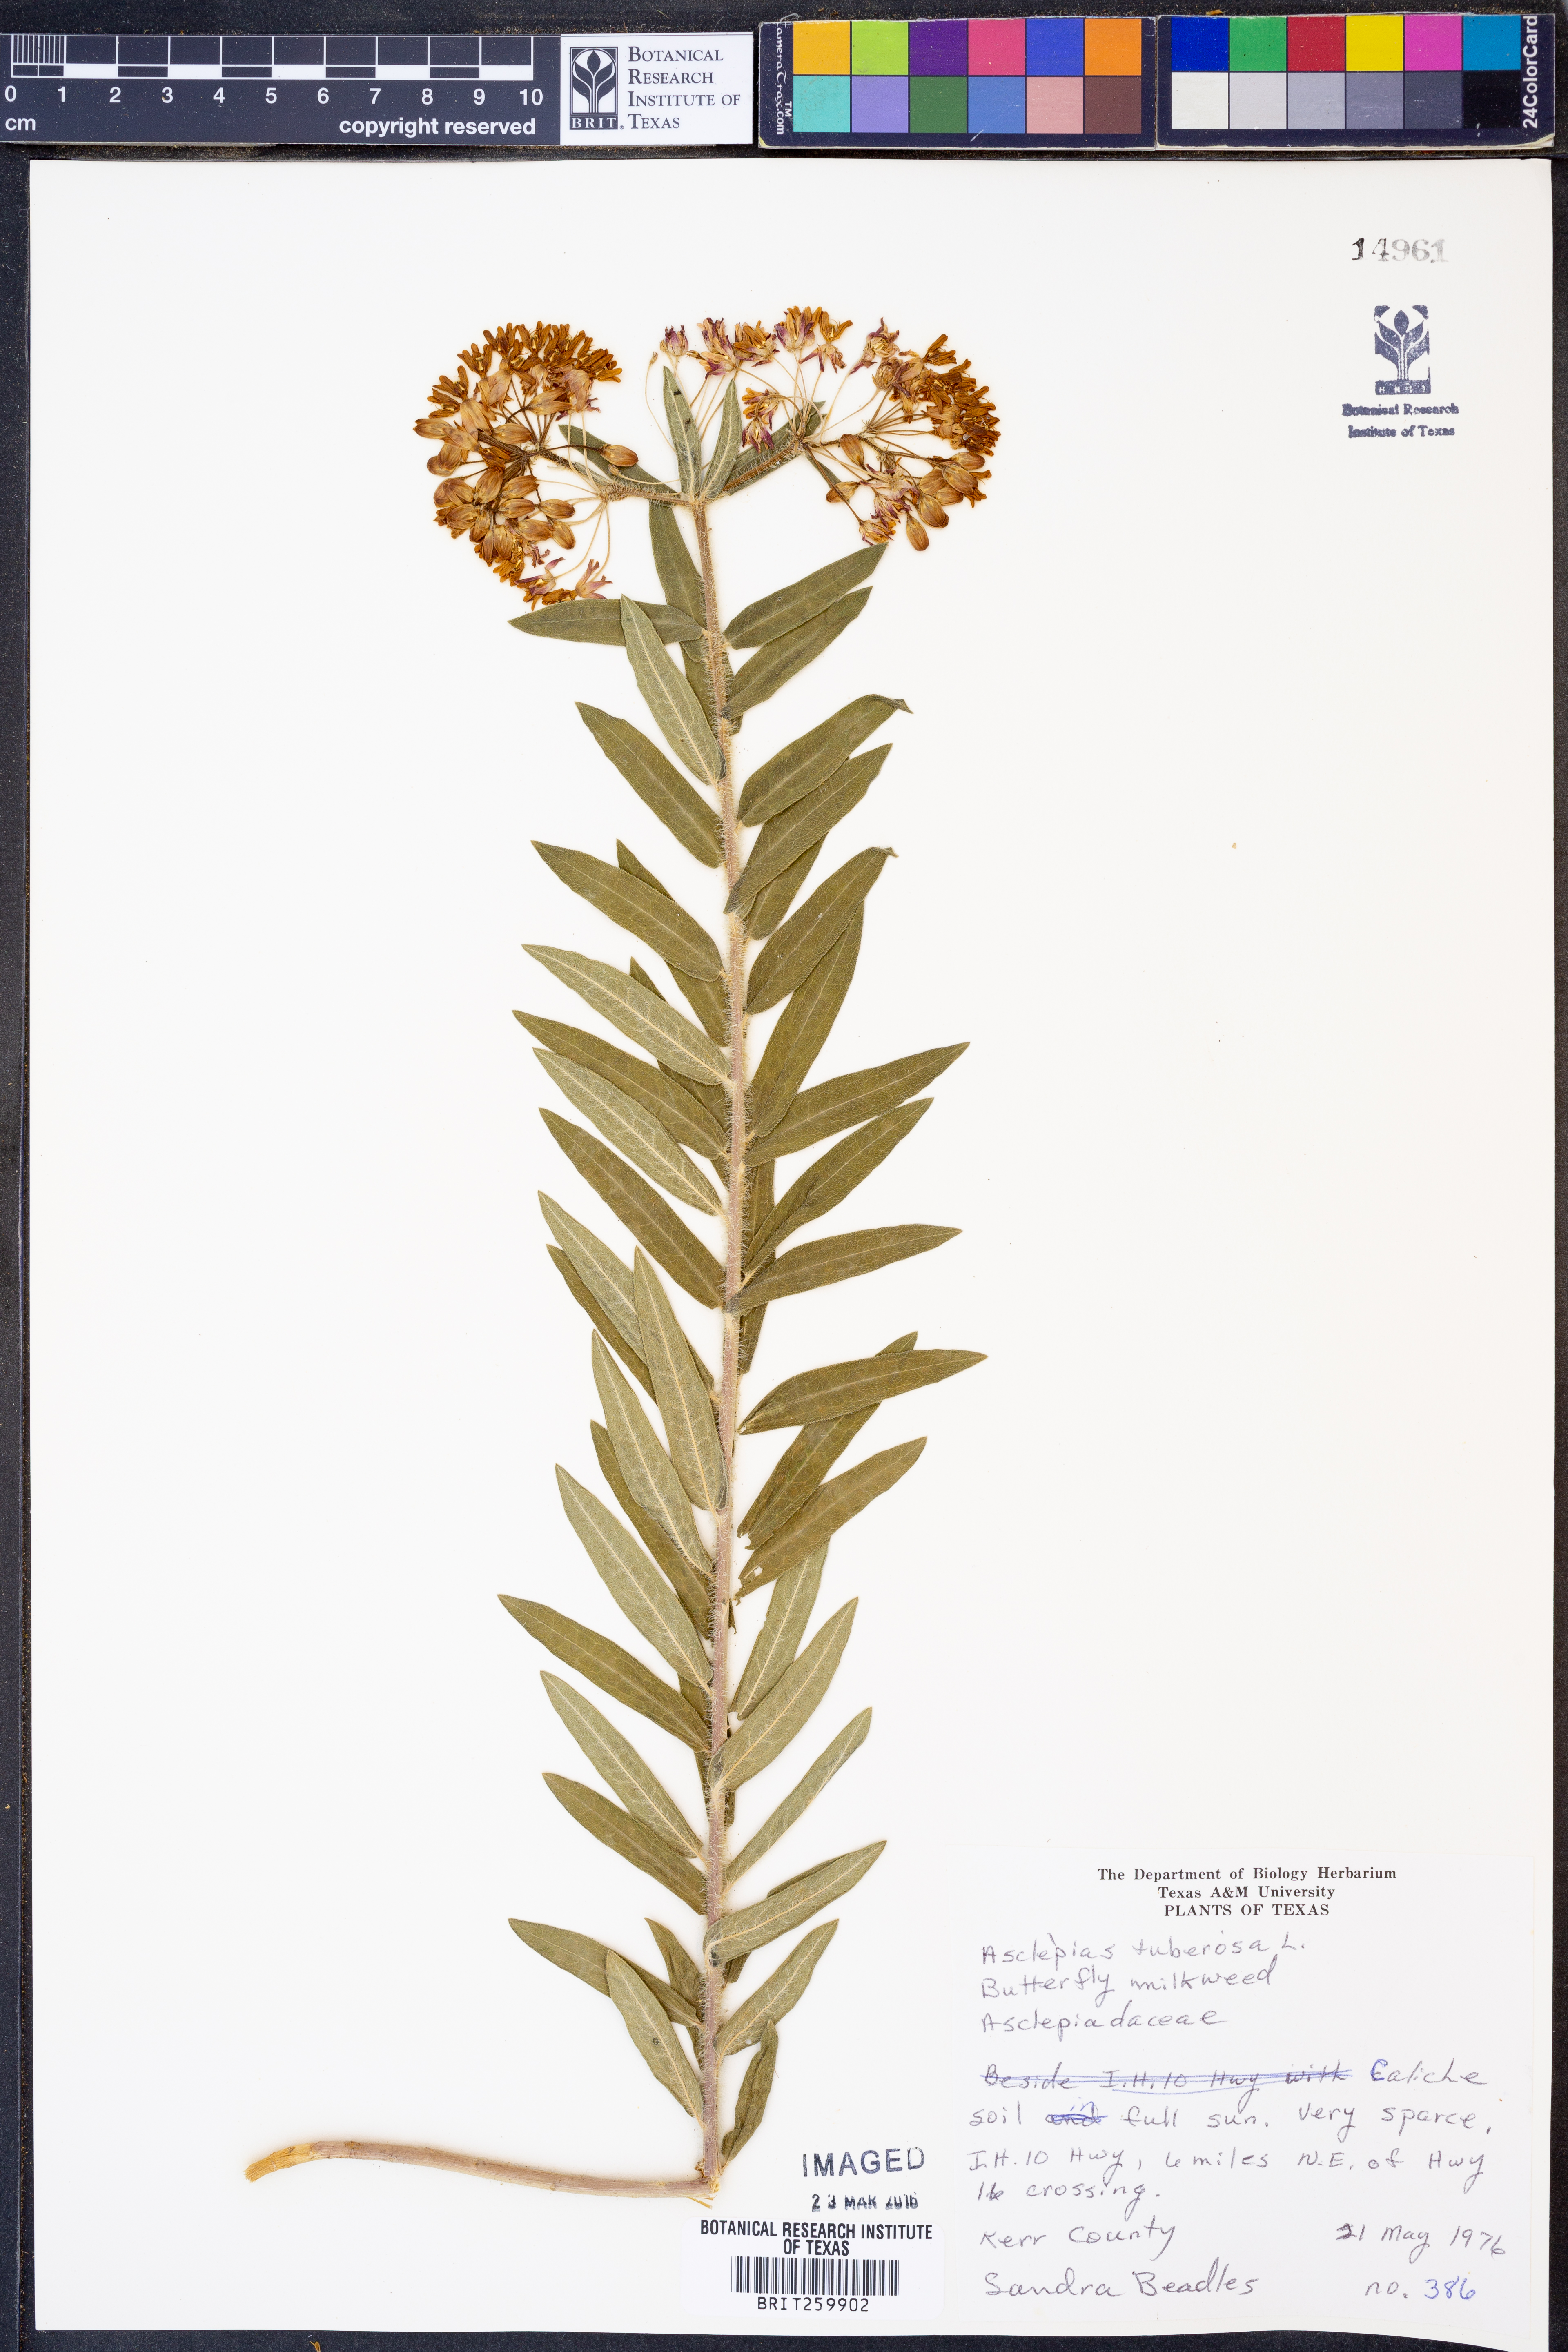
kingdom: Plantae
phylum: Tracheophyta
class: Magnoliopsida
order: Gentianales
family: Apocynaceae
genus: Asclepias
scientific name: Asclepias tuberosa
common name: Butterfly milkweed
